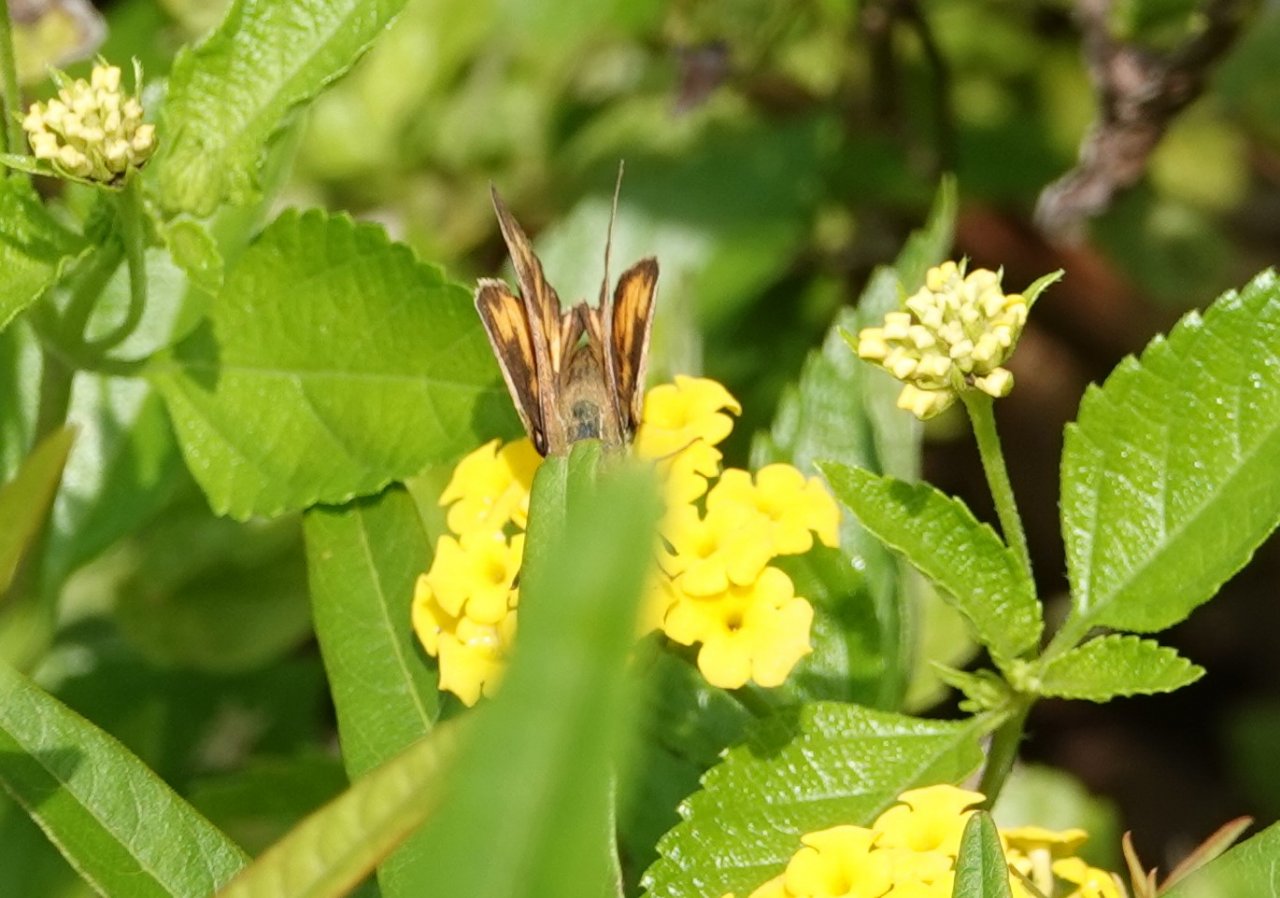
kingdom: Animalia
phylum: Arthropoda
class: Insecta
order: Lepidoptera
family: Hesperiidae
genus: Hylephila
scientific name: Hylephila phyleus
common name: Fiery Skipper
